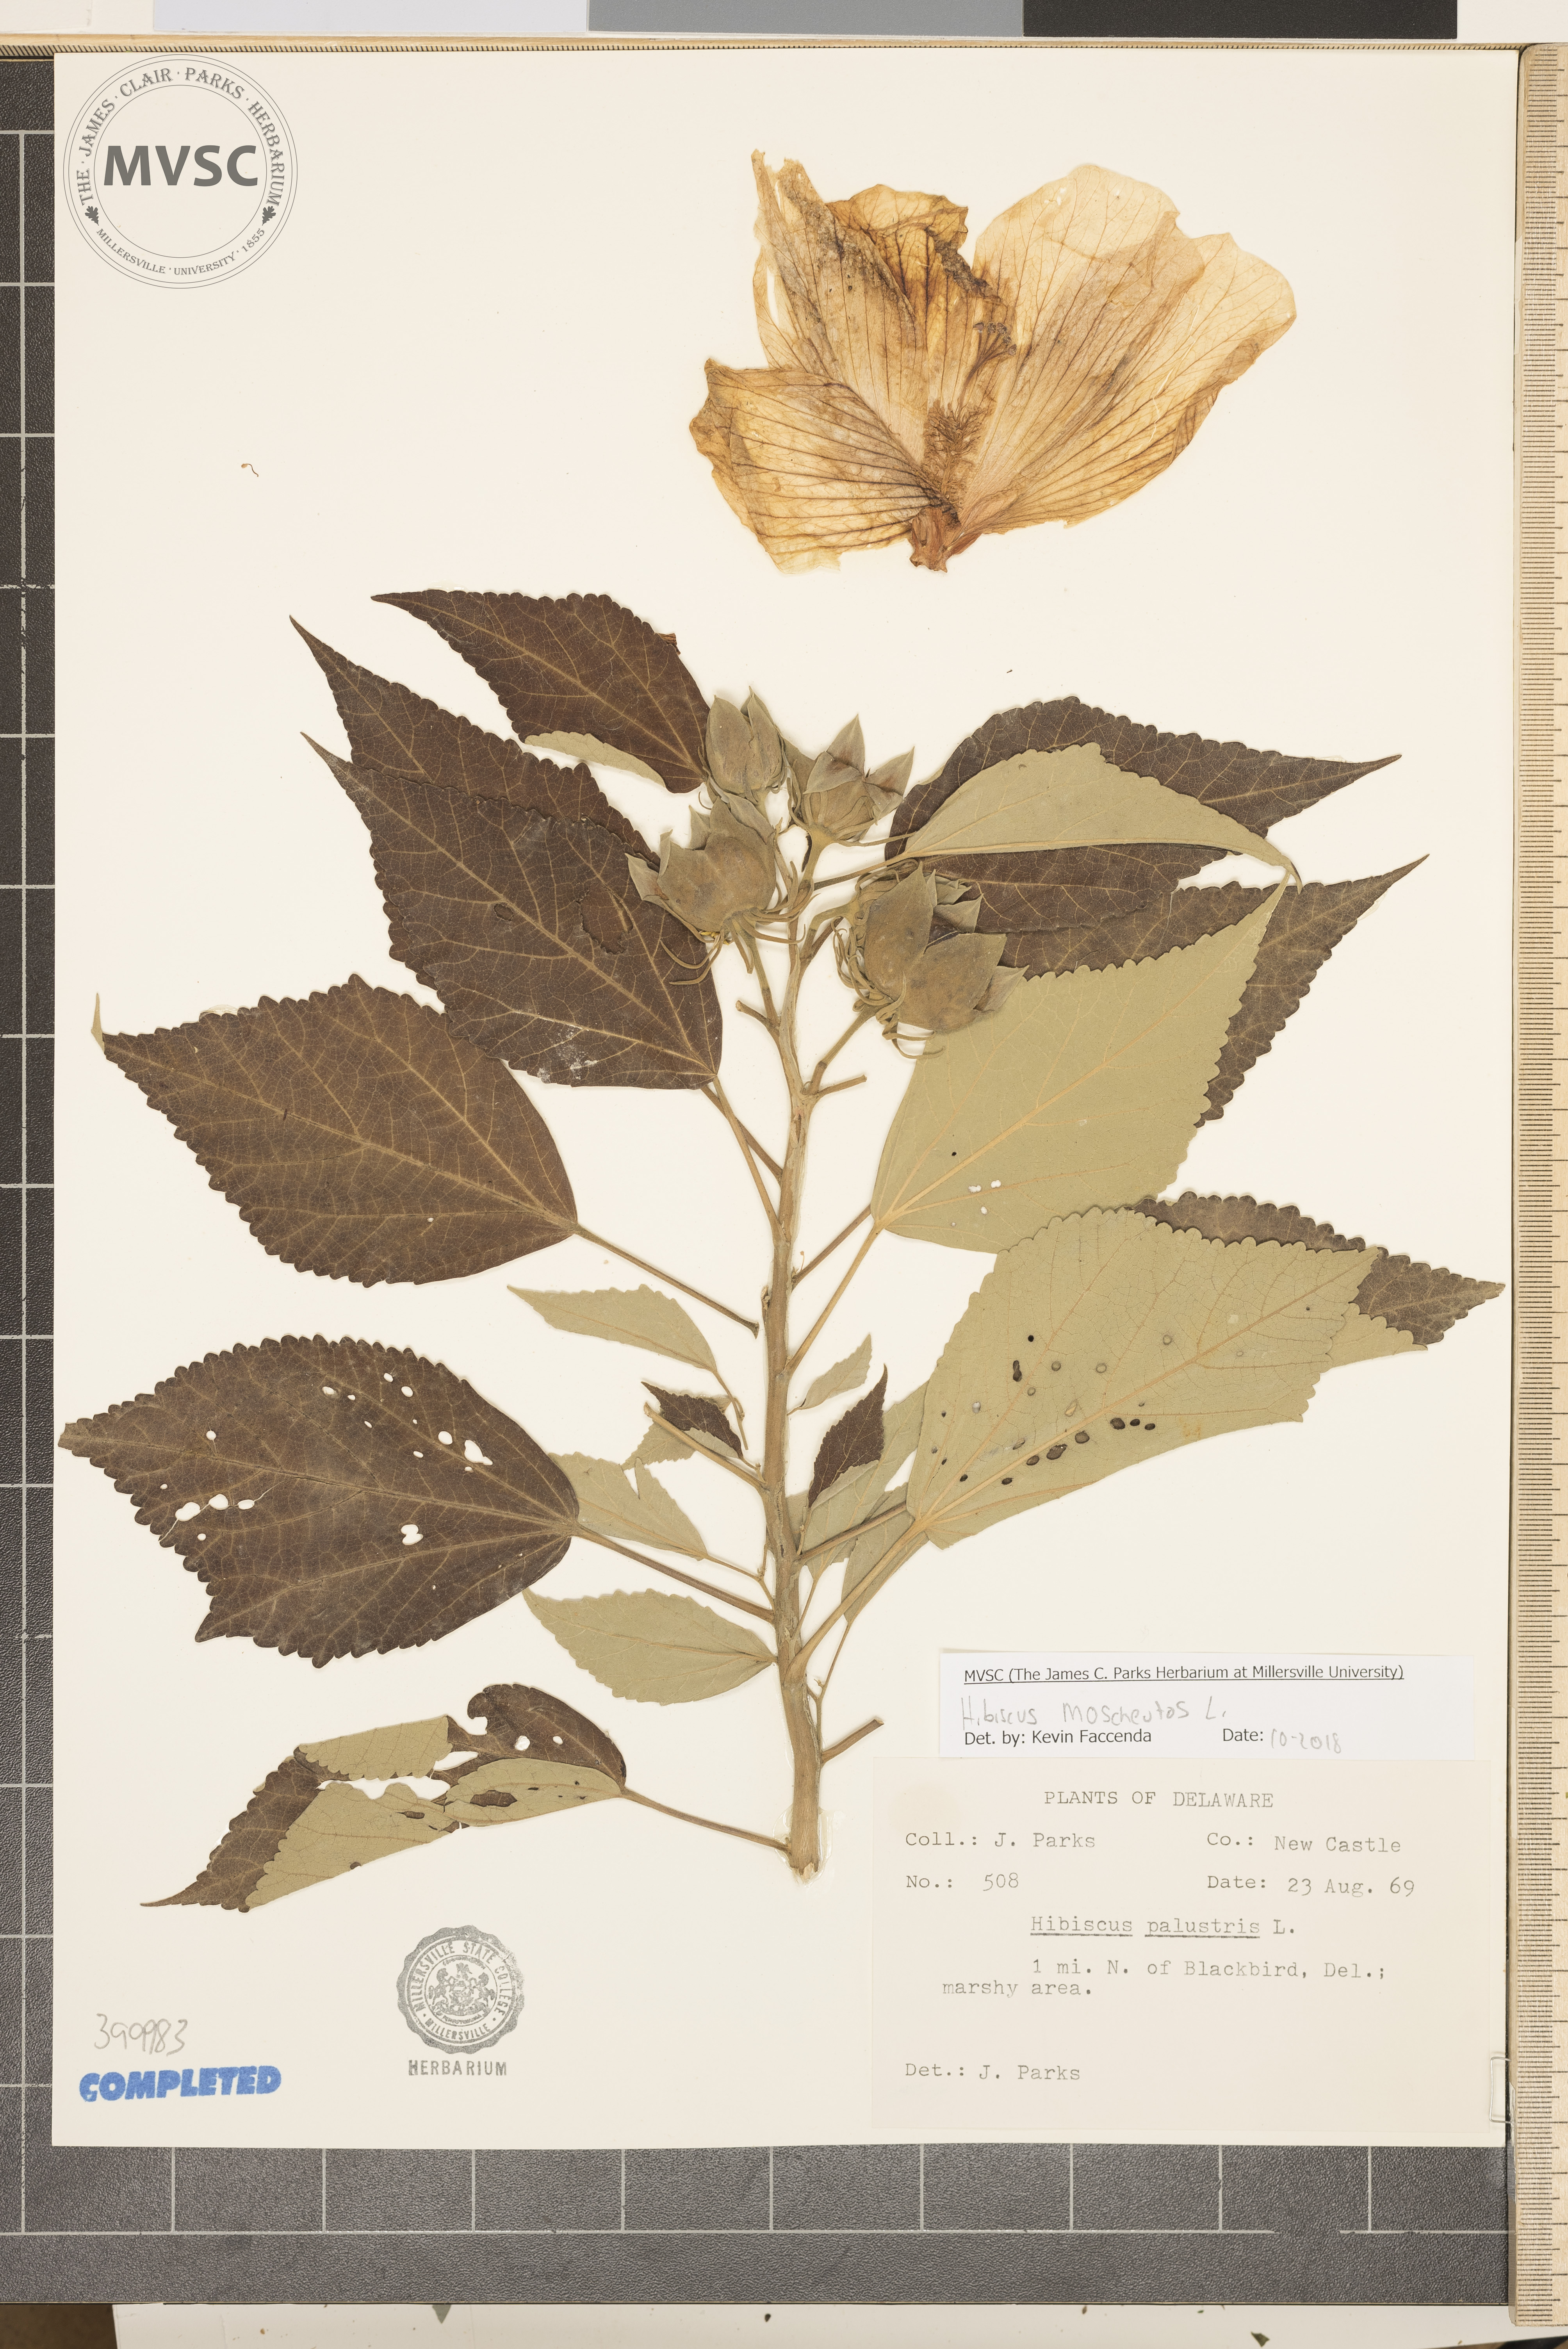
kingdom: Plantae
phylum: Tracheophyta
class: Magnoliopsida
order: Malvales
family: Malvaceae
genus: Hibiscus
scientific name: Hibiscus moscheutos
